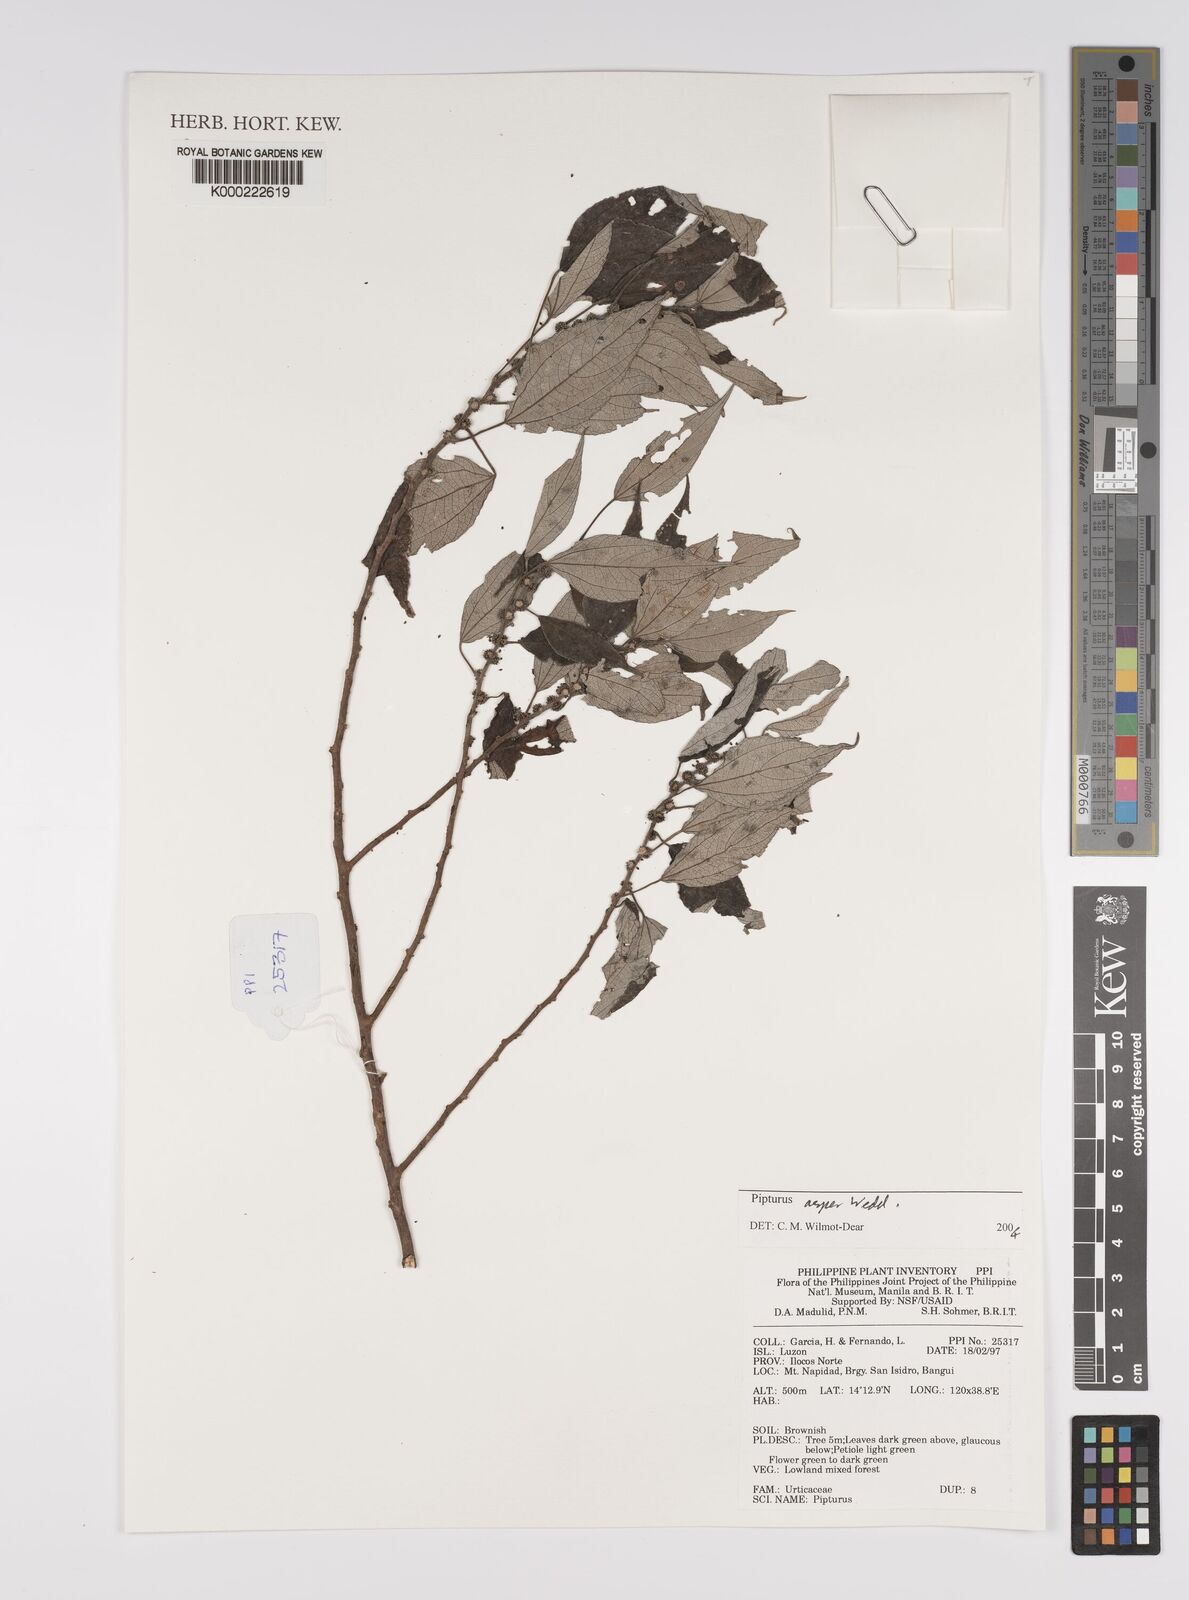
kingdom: Plantae
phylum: Tracheophyta
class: Magnoliopsida
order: Rosales
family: Urticaceae
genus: Pipturus
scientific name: Pipturus arborescens
